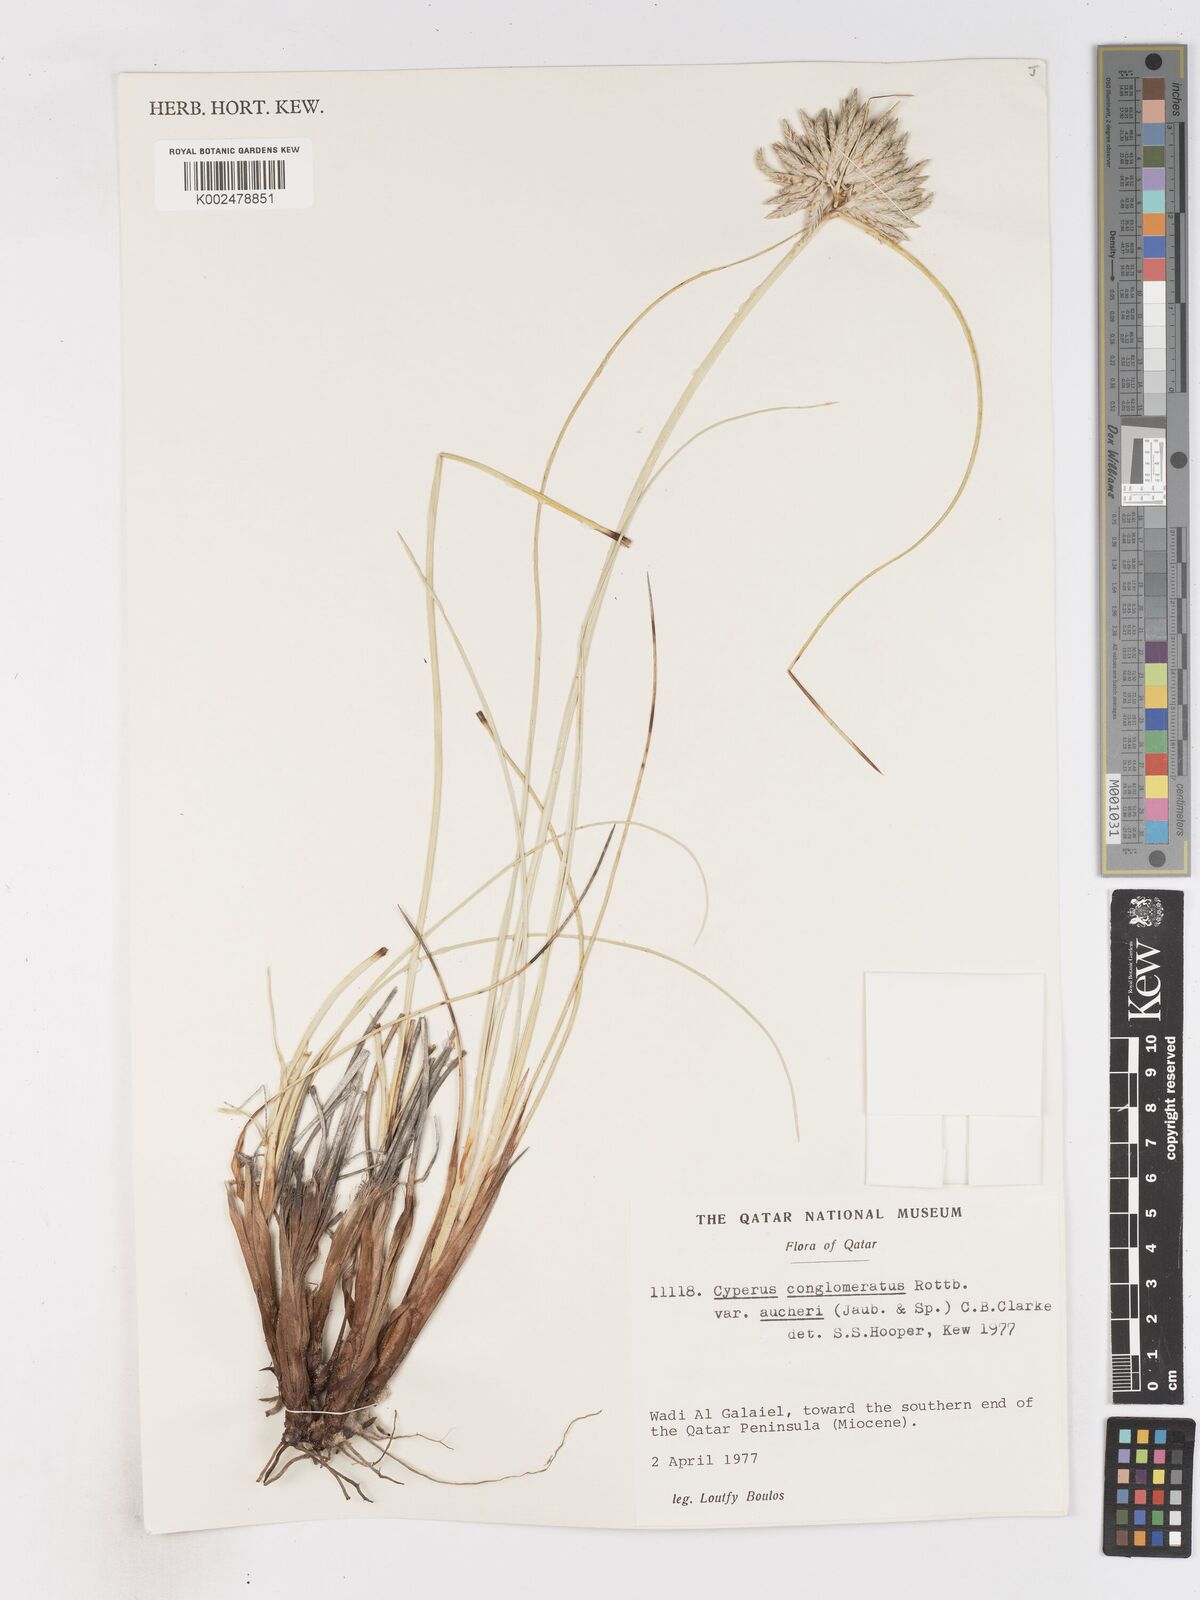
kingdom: Plantae
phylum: Tracheophyta
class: Liliopsida
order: Poales
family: Cyperaceae
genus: Cyperus
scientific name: Cyperus aucheri
